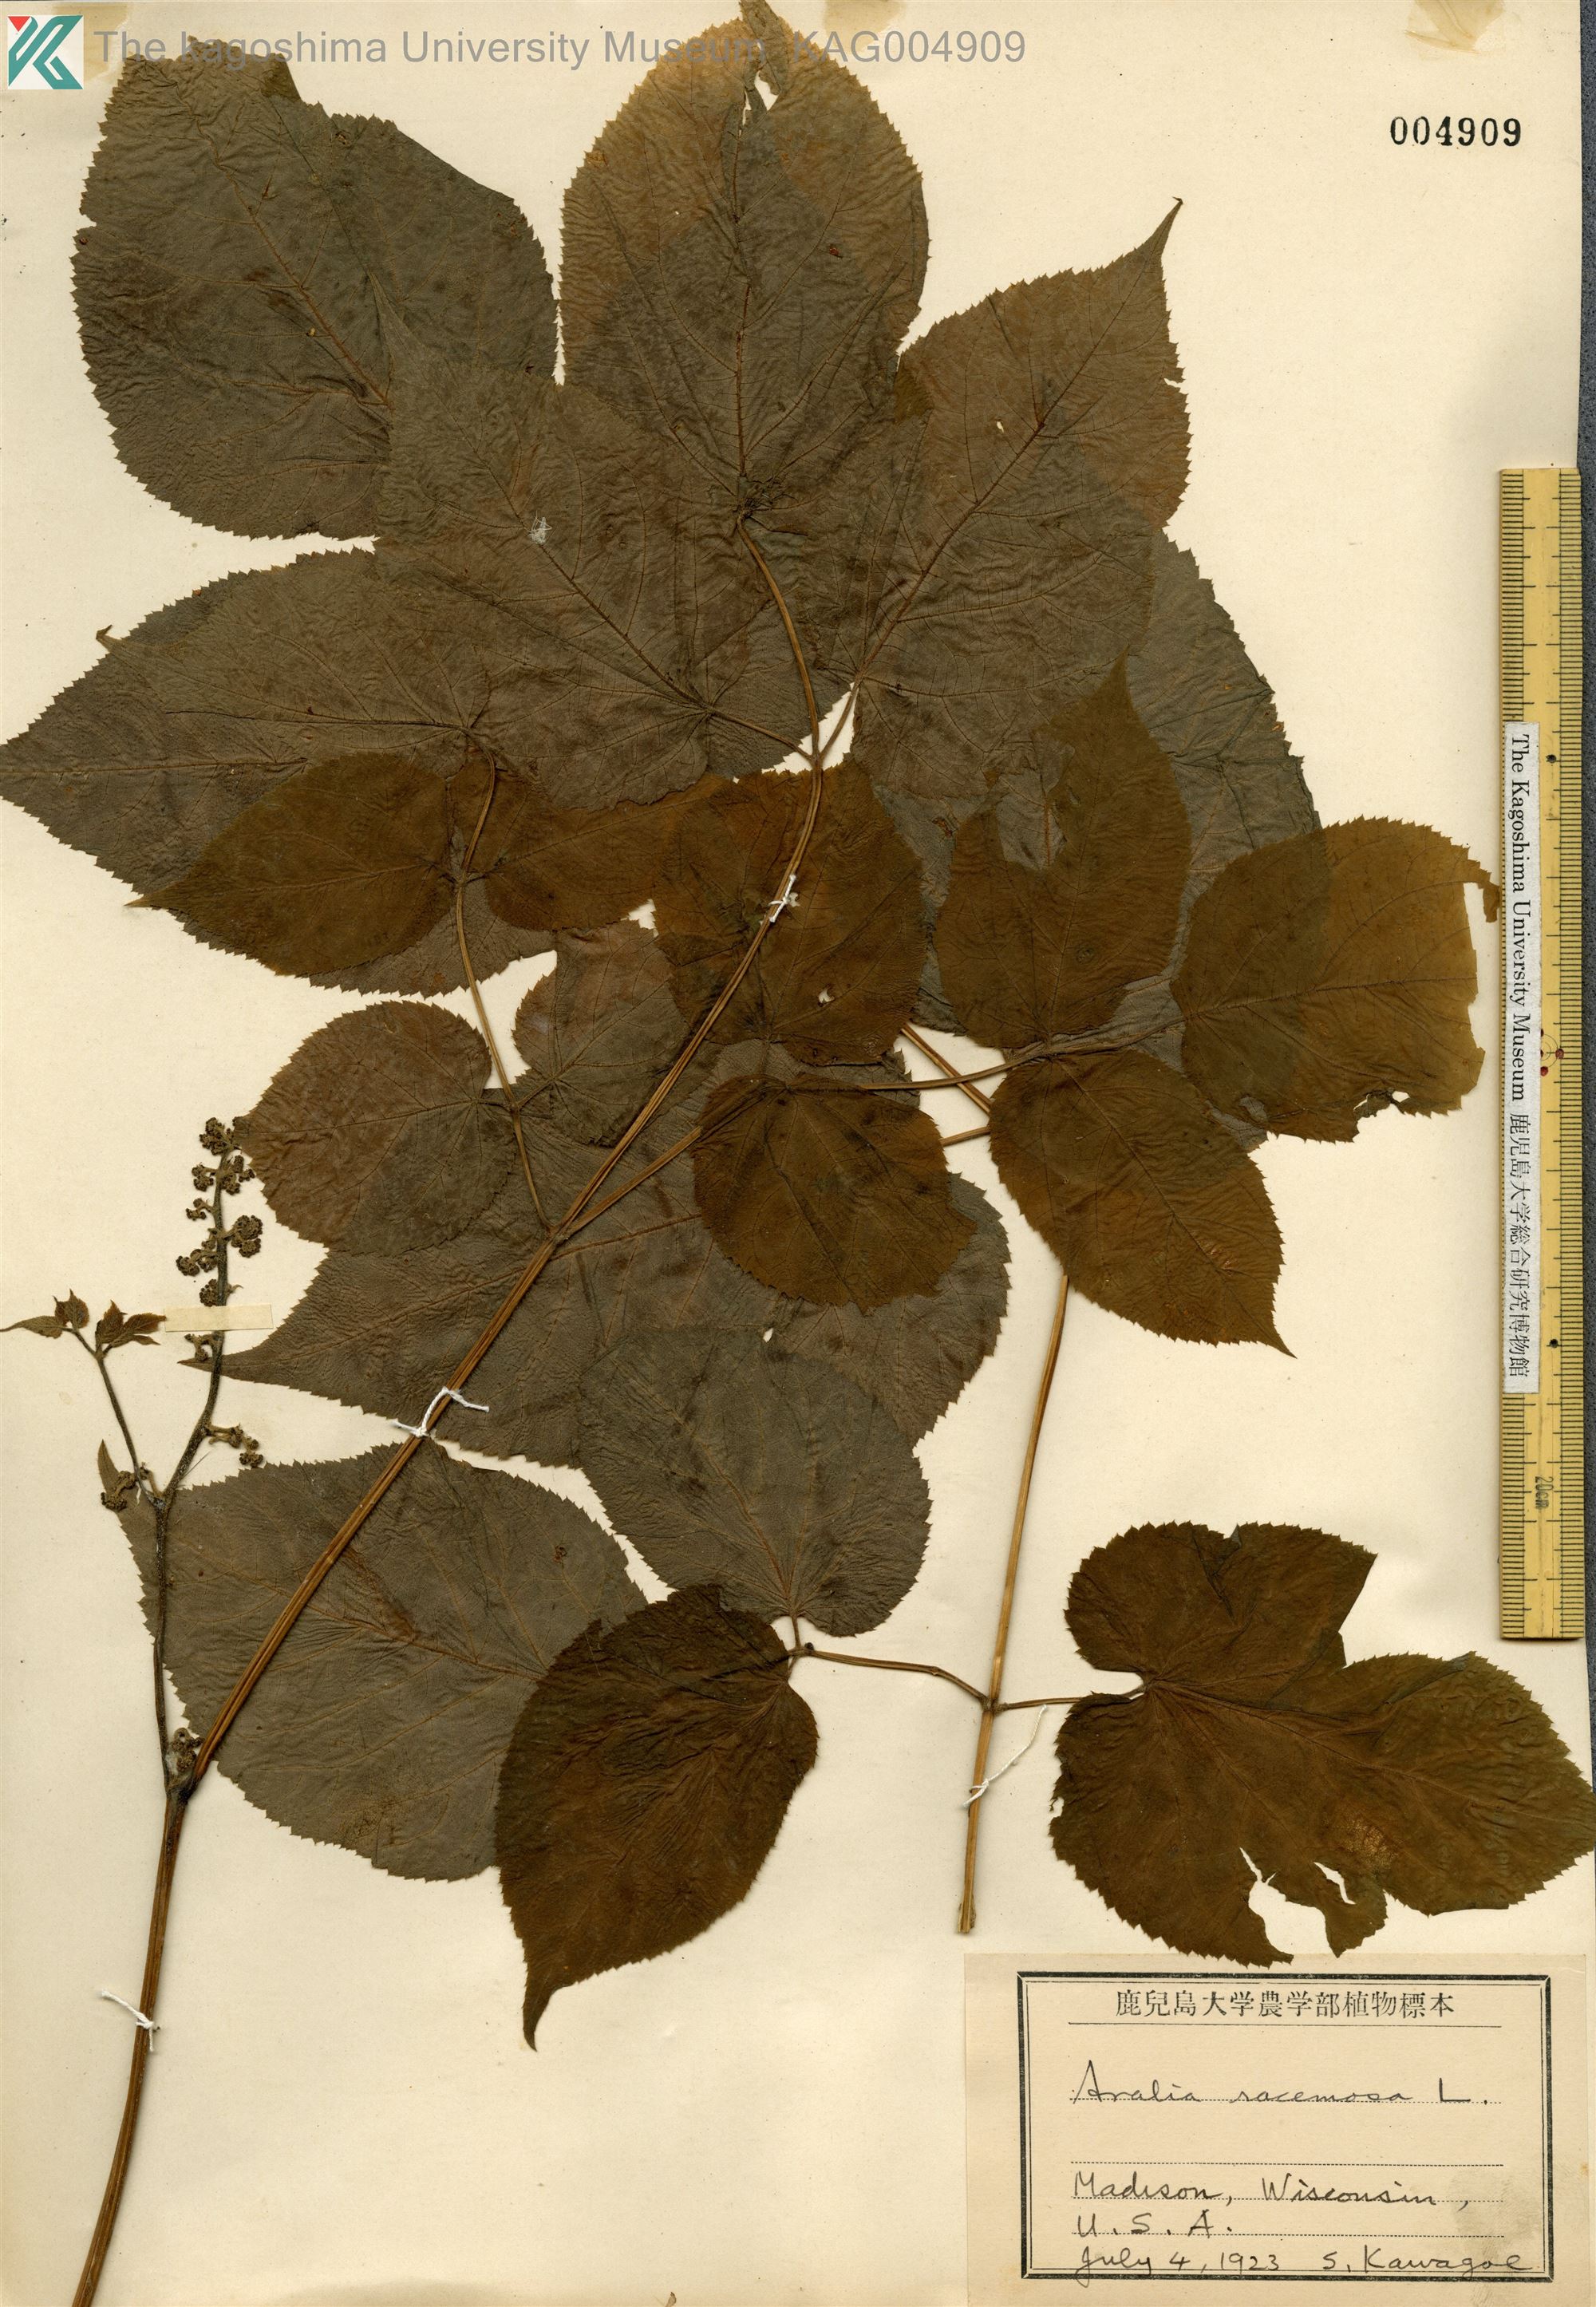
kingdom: Plantae
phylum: Tracheophyta
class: Magnoliopsida
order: Apiales
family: Araliaceae
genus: Aralia
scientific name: Aralia racemosa
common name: American-spikenard
